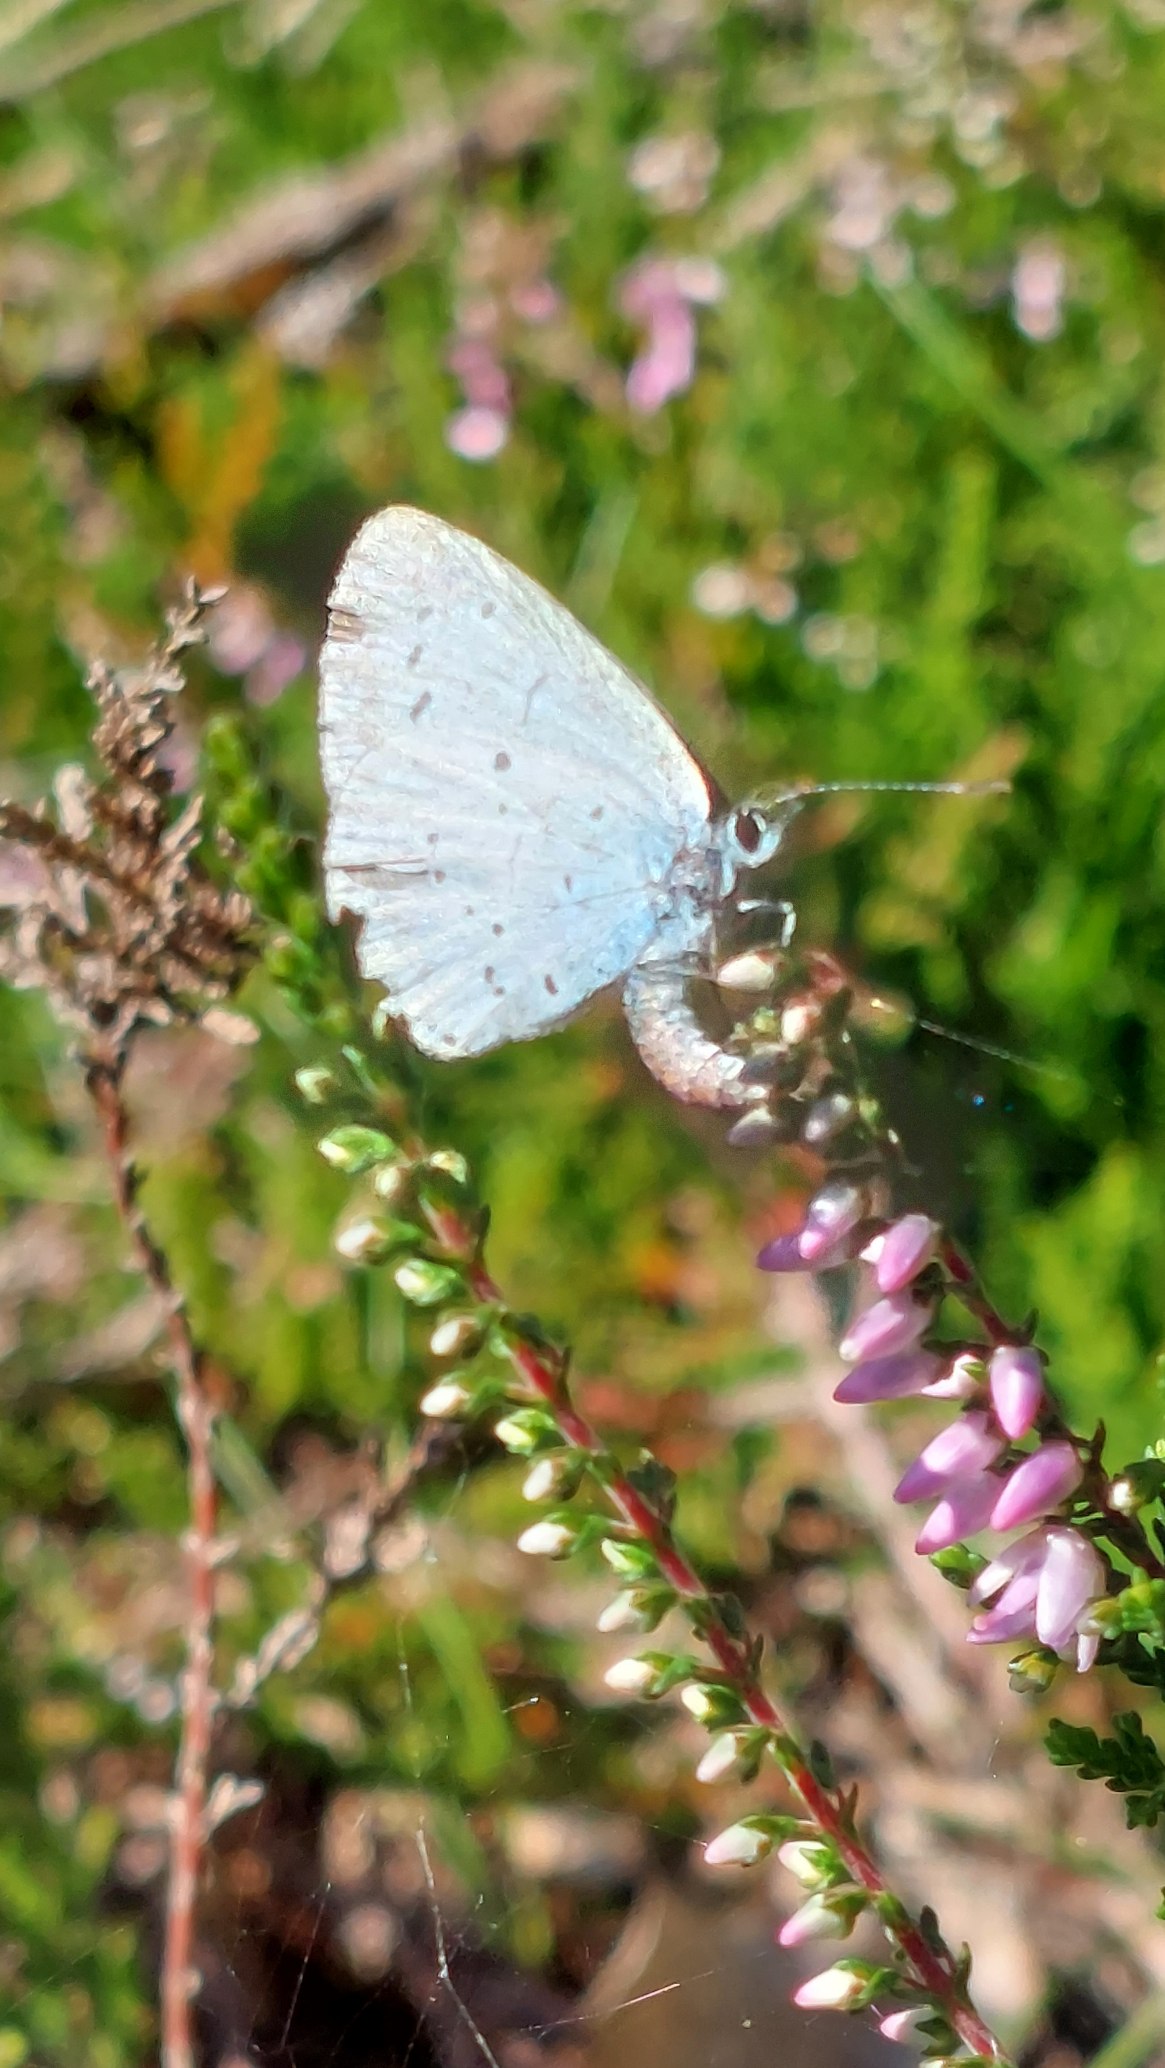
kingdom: Animalia
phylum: Arthropoda
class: Insecta
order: Lepidoptera
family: Lycaenidae
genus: Celastrina
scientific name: Celastrina argiolus
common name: Skovblåfugl
